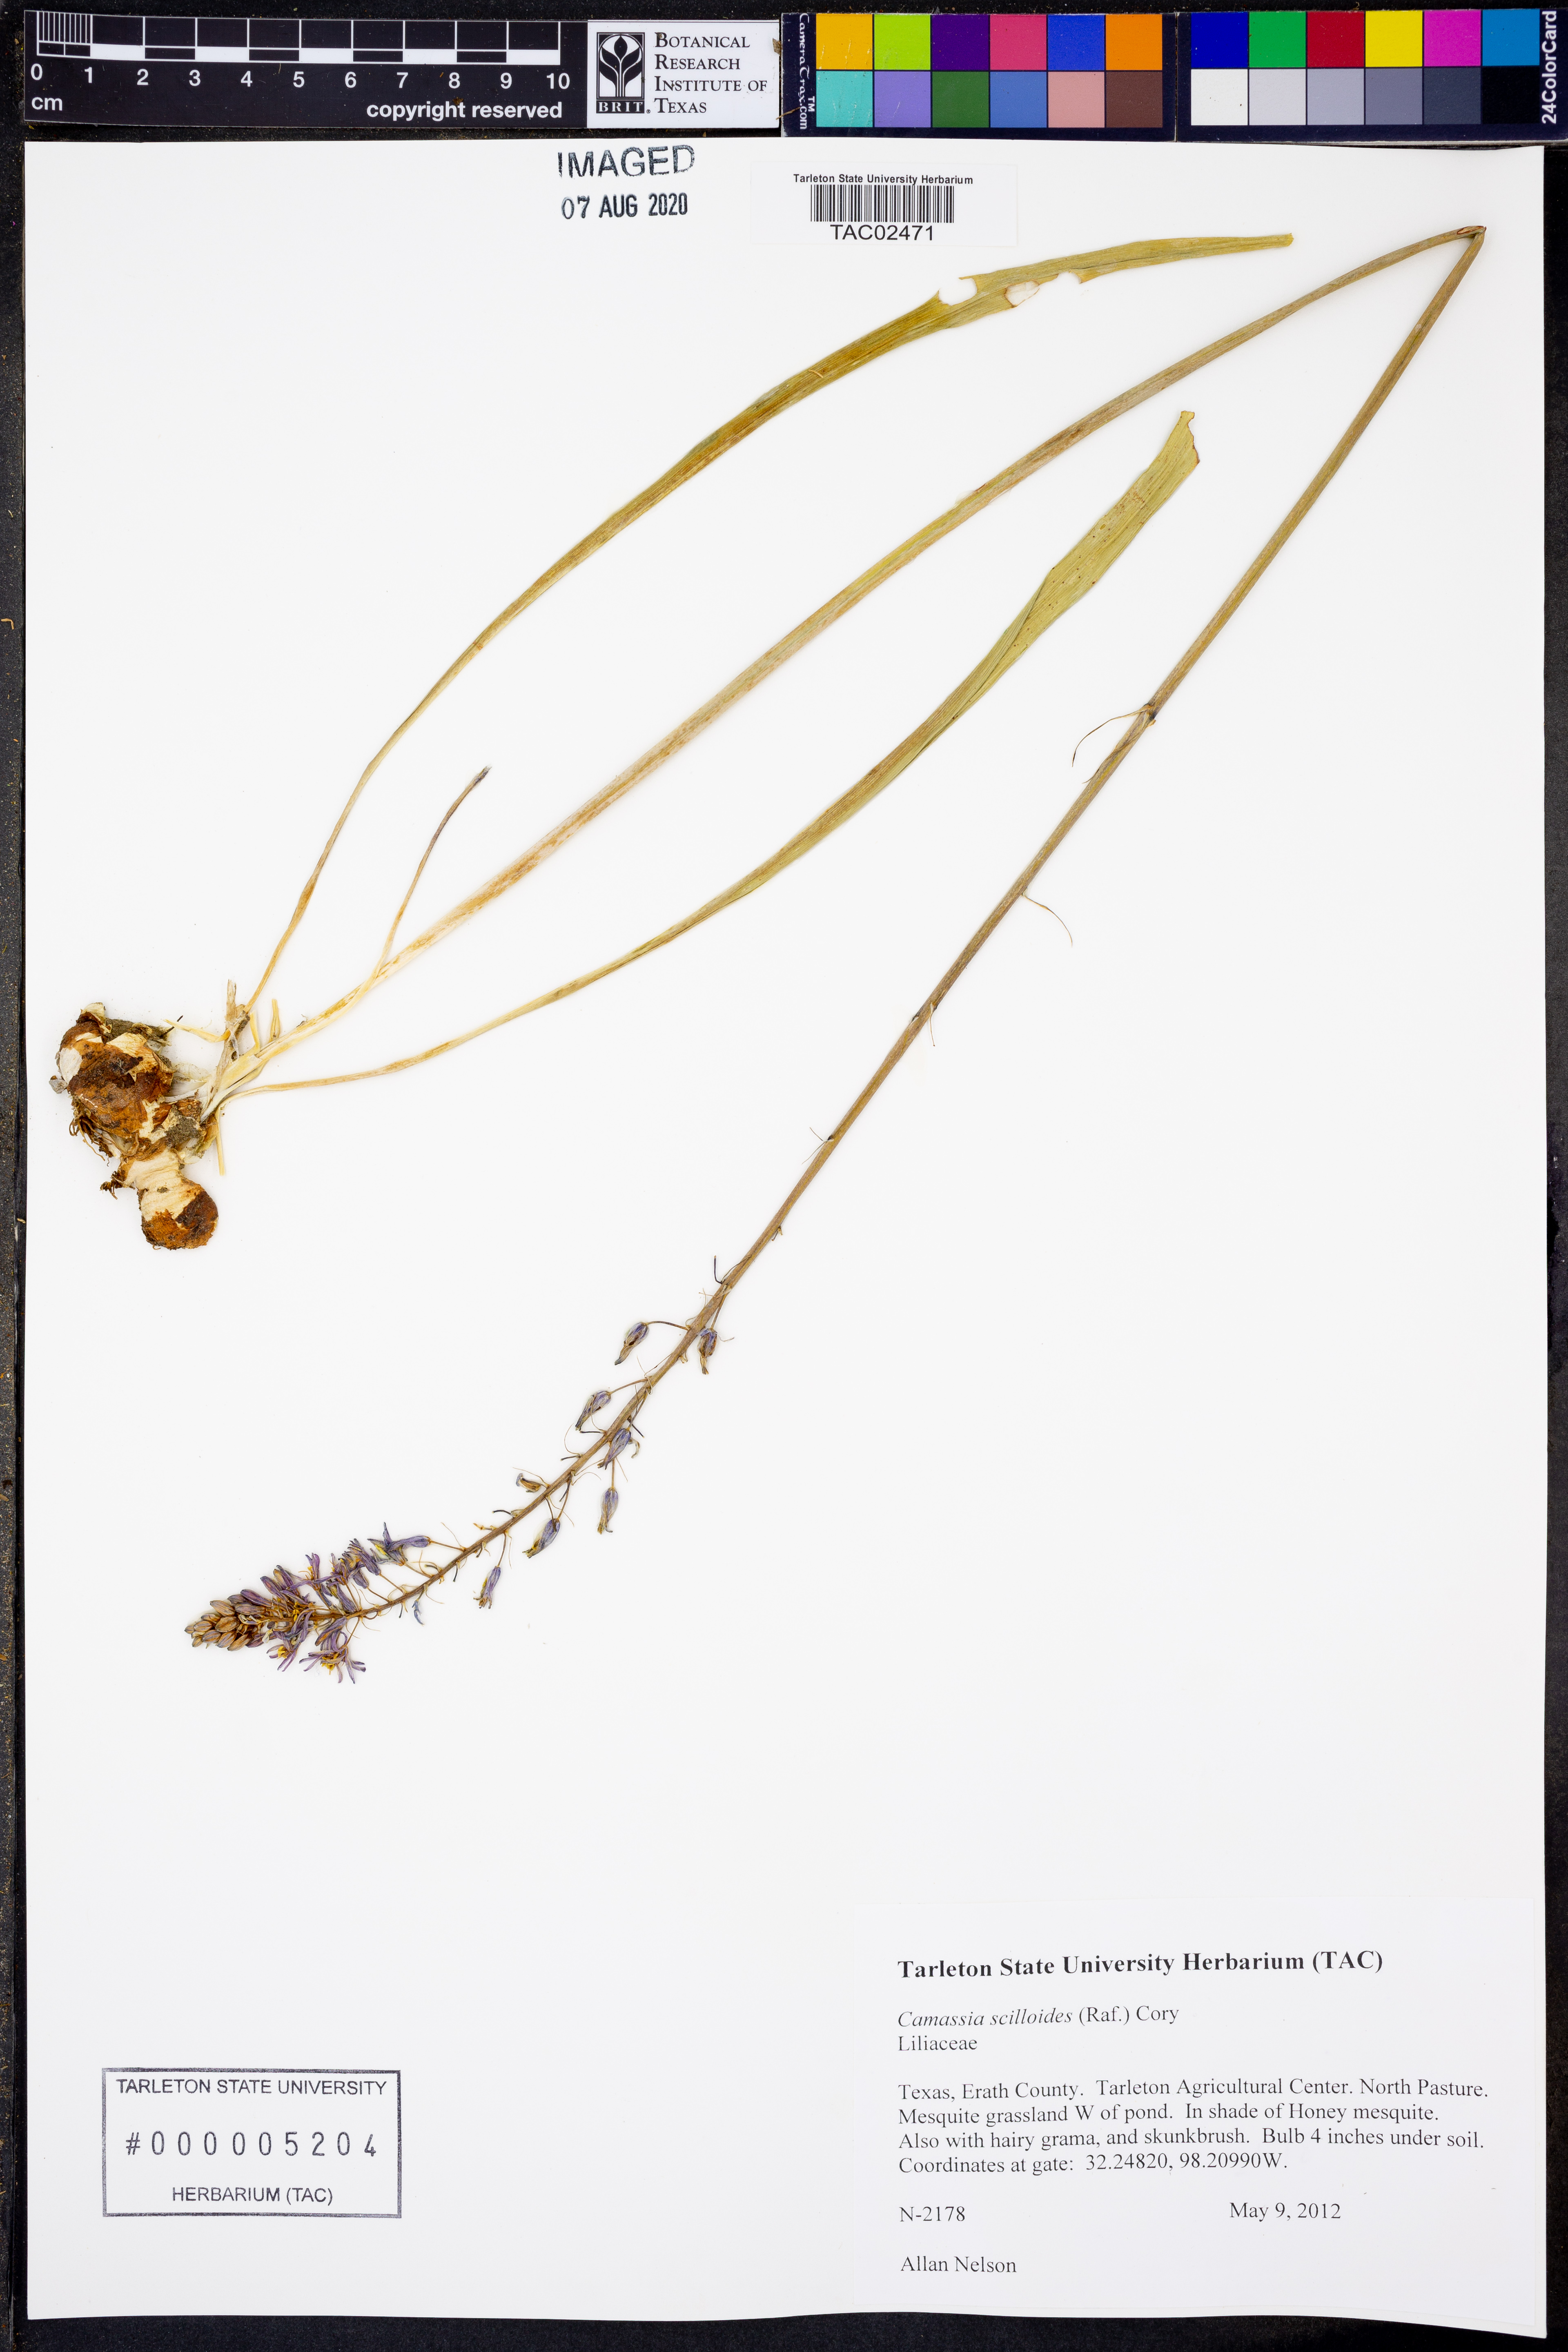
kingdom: Plantae
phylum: Tracheophyta
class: Liliopsida
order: Asparagales
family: Asparagaceae
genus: Camassia
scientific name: Camassia scilloides
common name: Wild hyacinth
